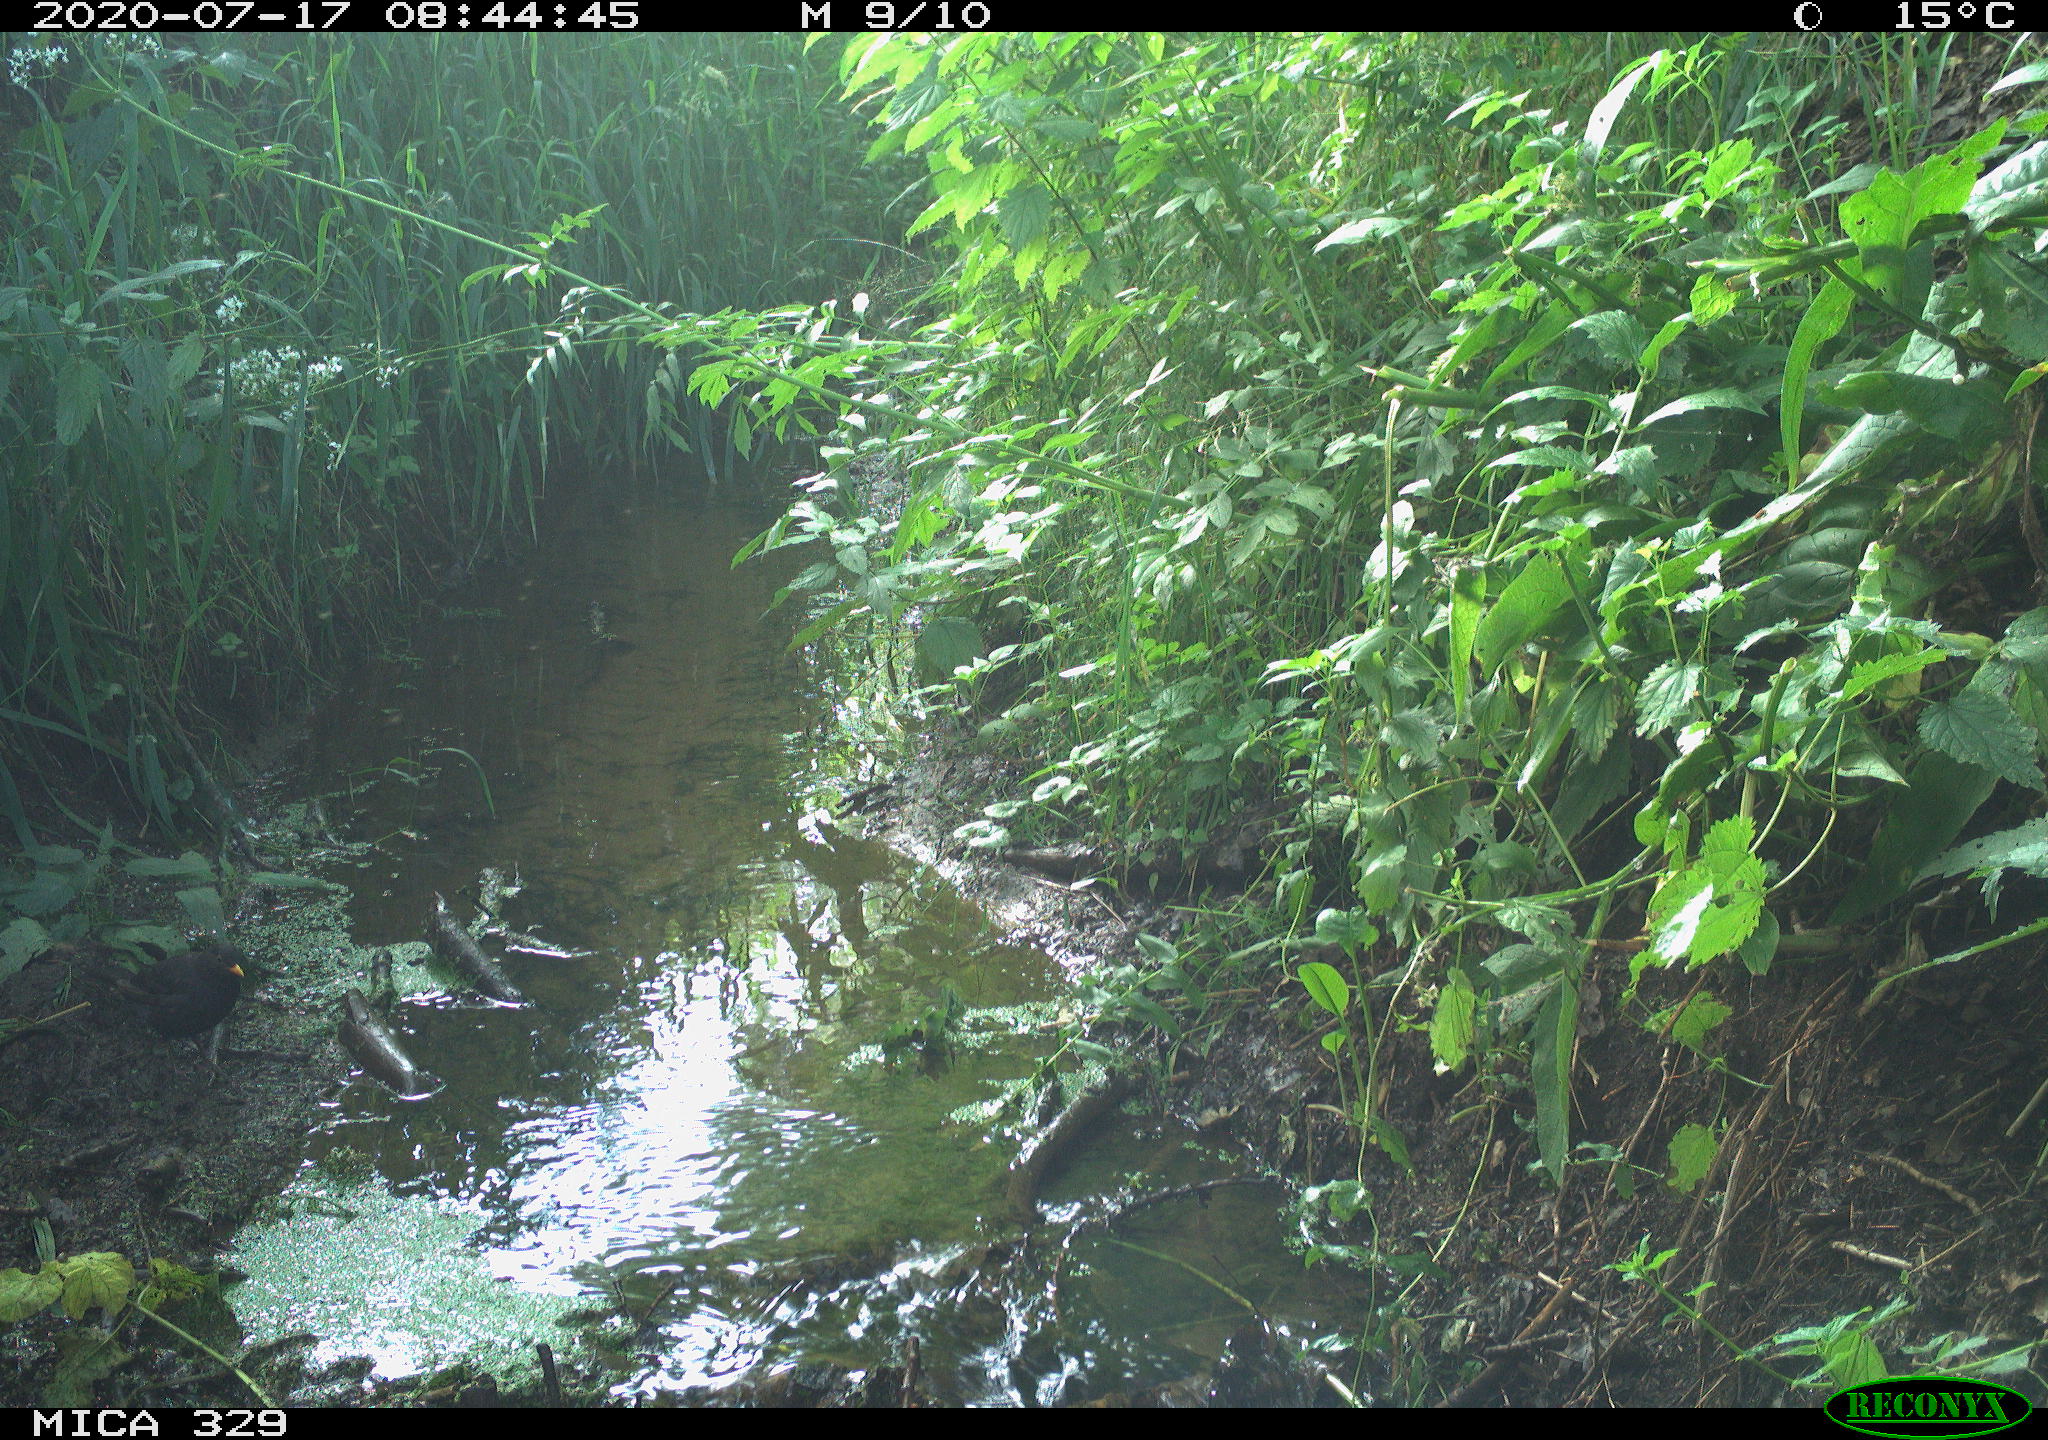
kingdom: Animalia
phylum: Chordata
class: Aves
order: Passeriformes
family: Turdidae
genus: Turdus
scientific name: Turdus merula
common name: Common blackbird
